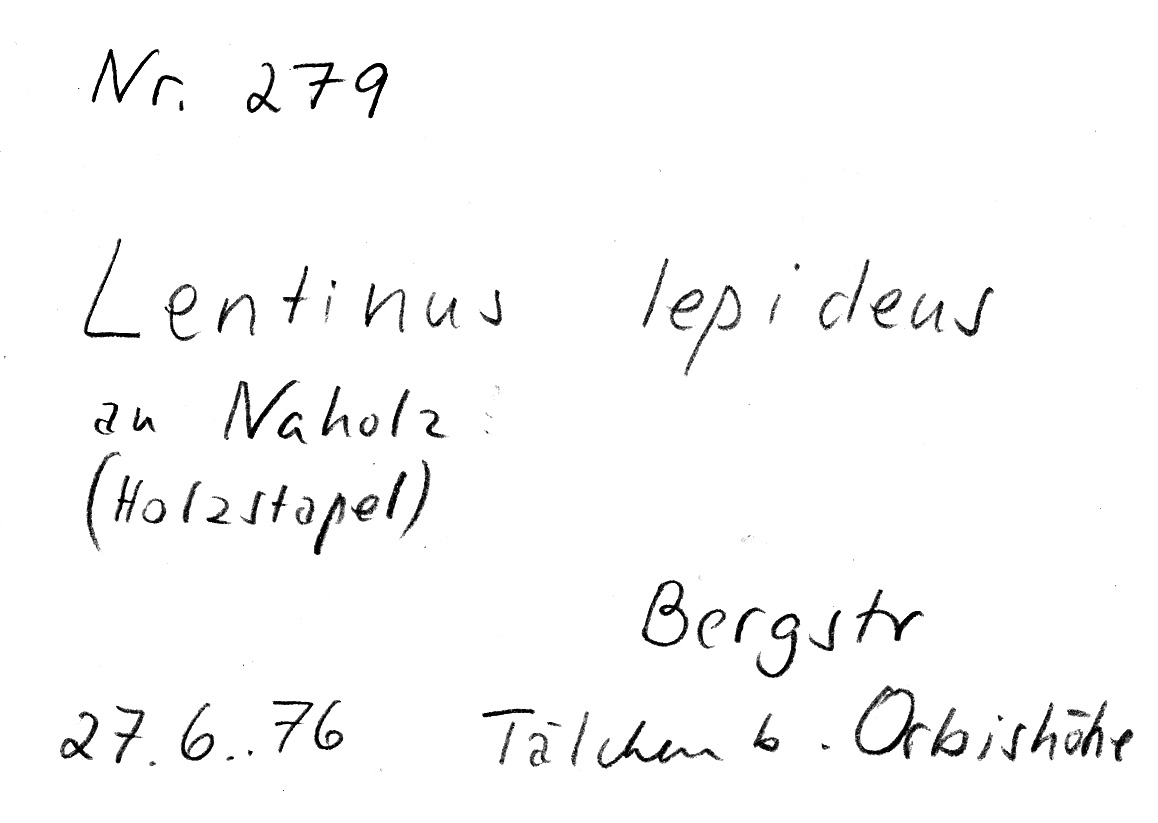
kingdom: Fungi
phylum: Basidiomycota
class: Agaricomycetes
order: Gloeophyllales
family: Gloeophyllaceae
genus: Neolentinus
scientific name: Neolentinus lepideus
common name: Scaly sawgill
